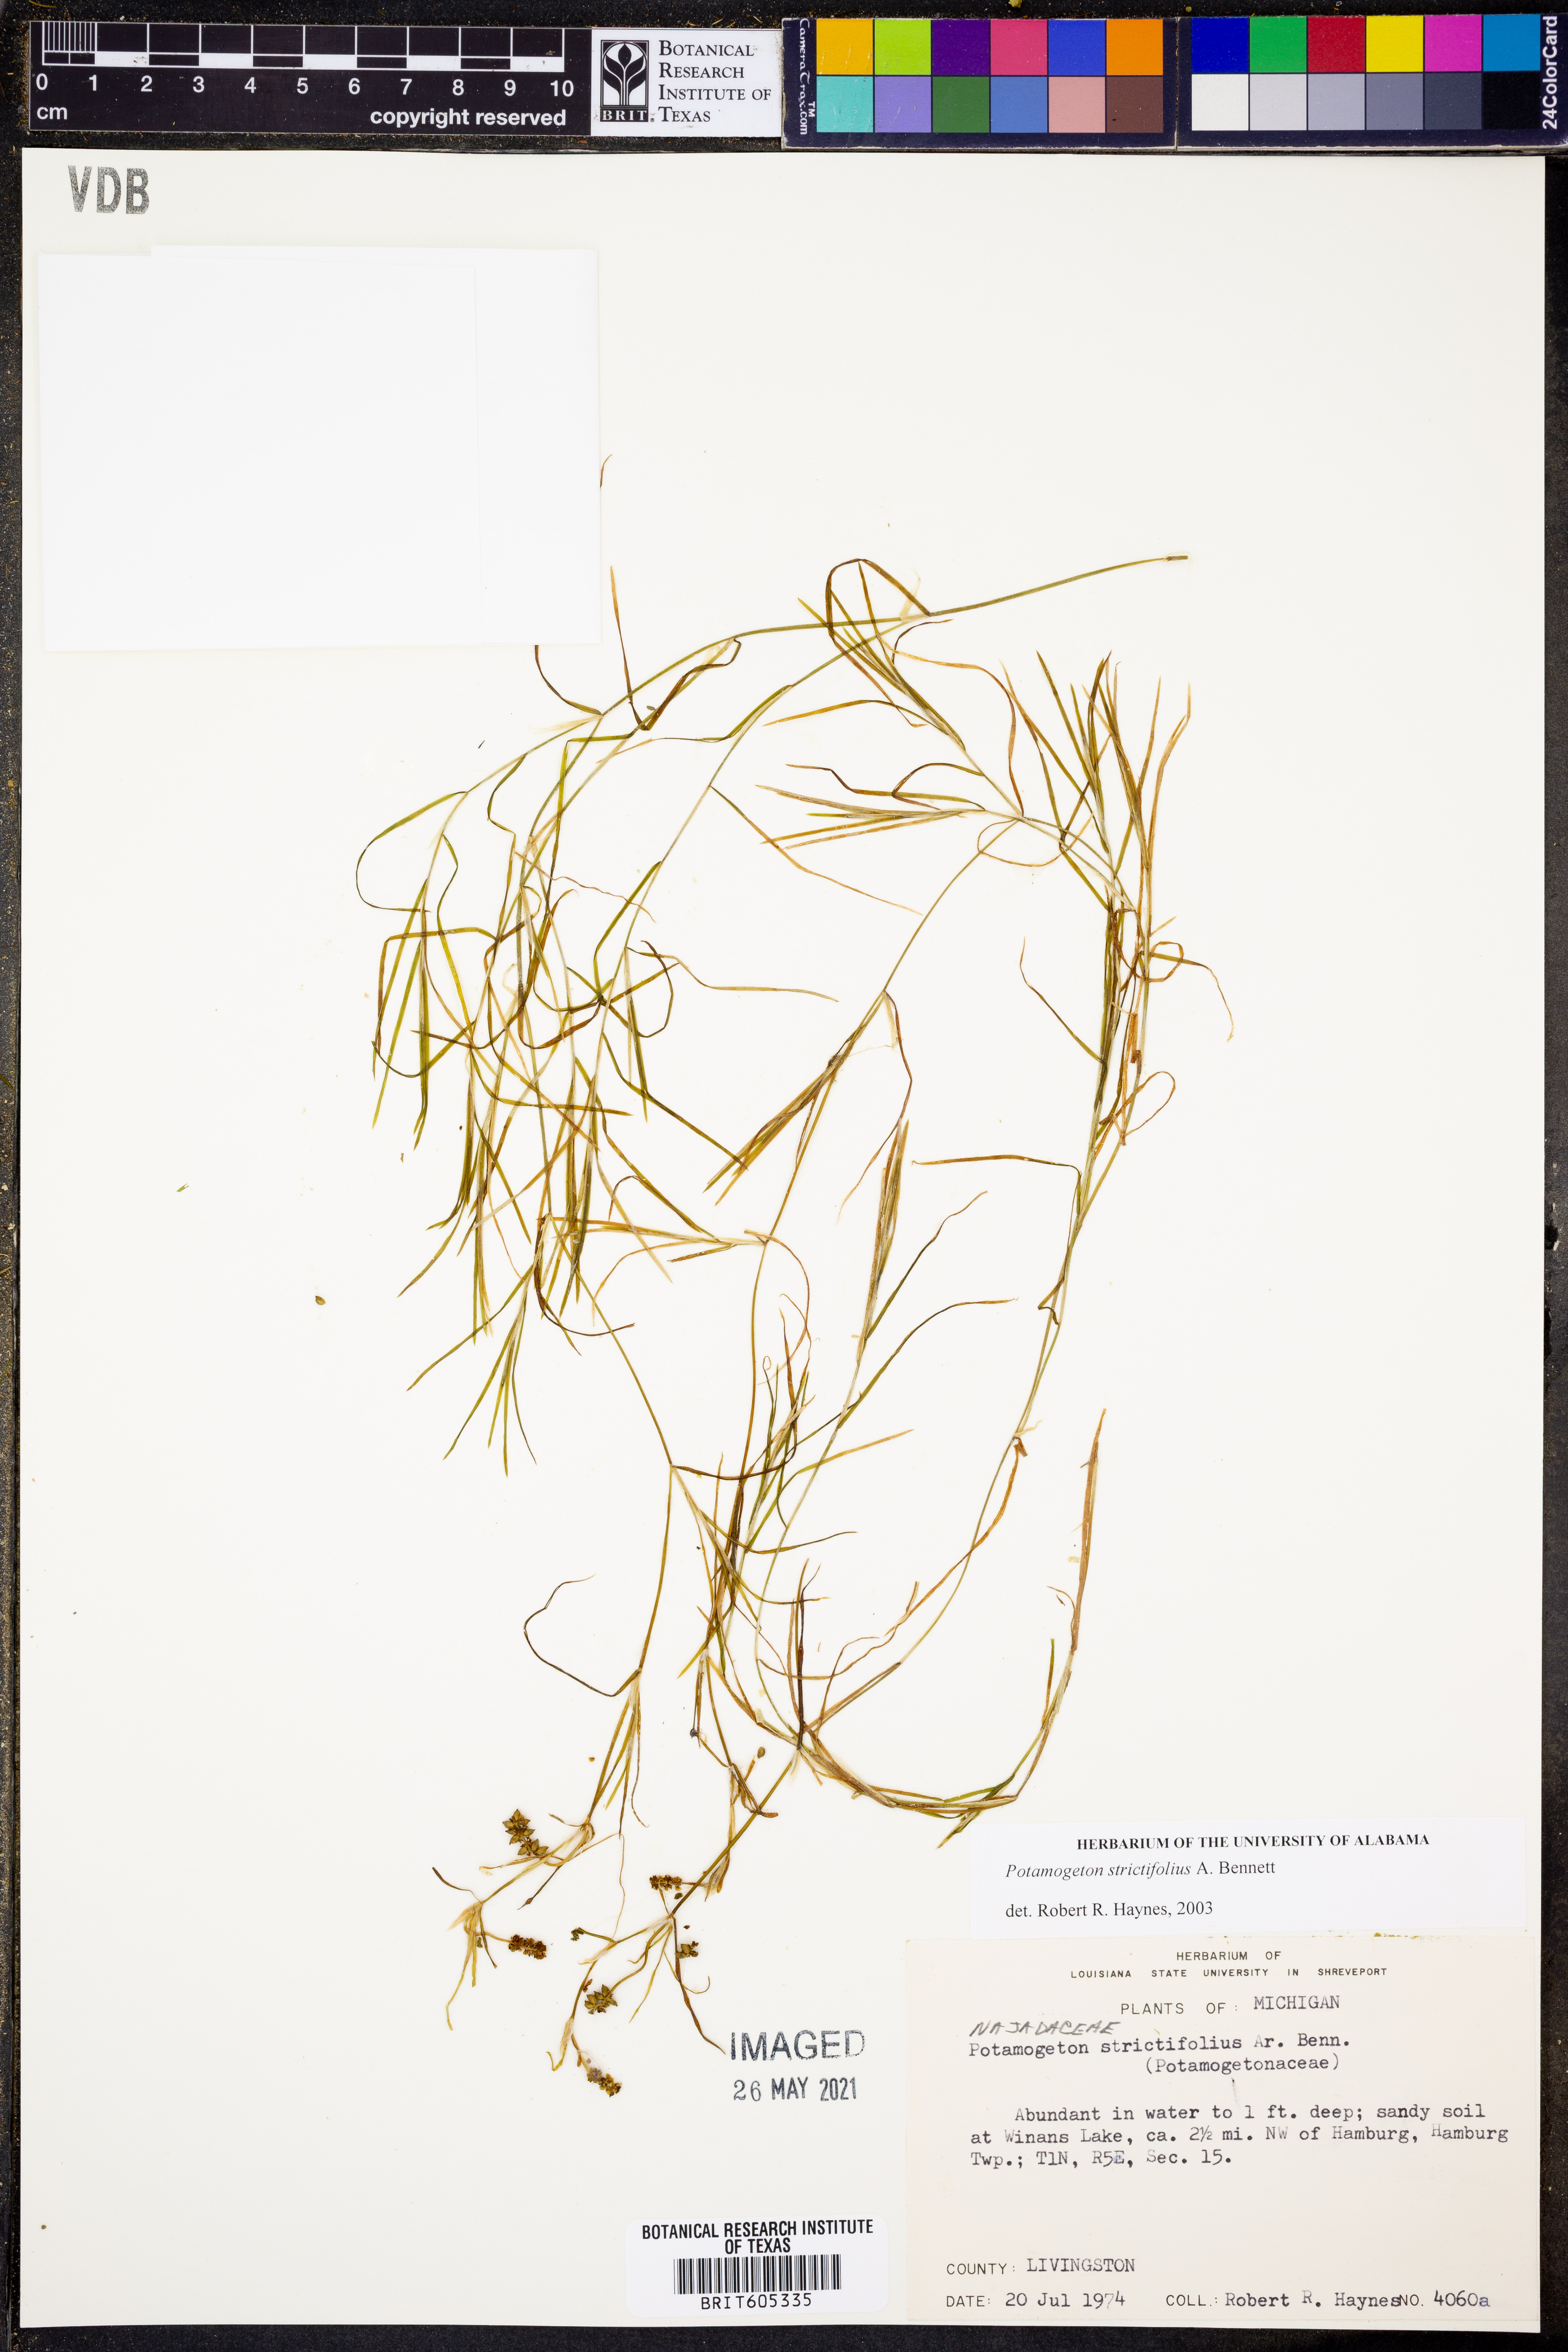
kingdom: Plantae
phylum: Tracheophyta
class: Liliopsida
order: Alismatales
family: Potamogetonaceae
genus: Potamogeton
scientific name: Potamogeton strictifolius
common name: Linear-leaved pondweed
